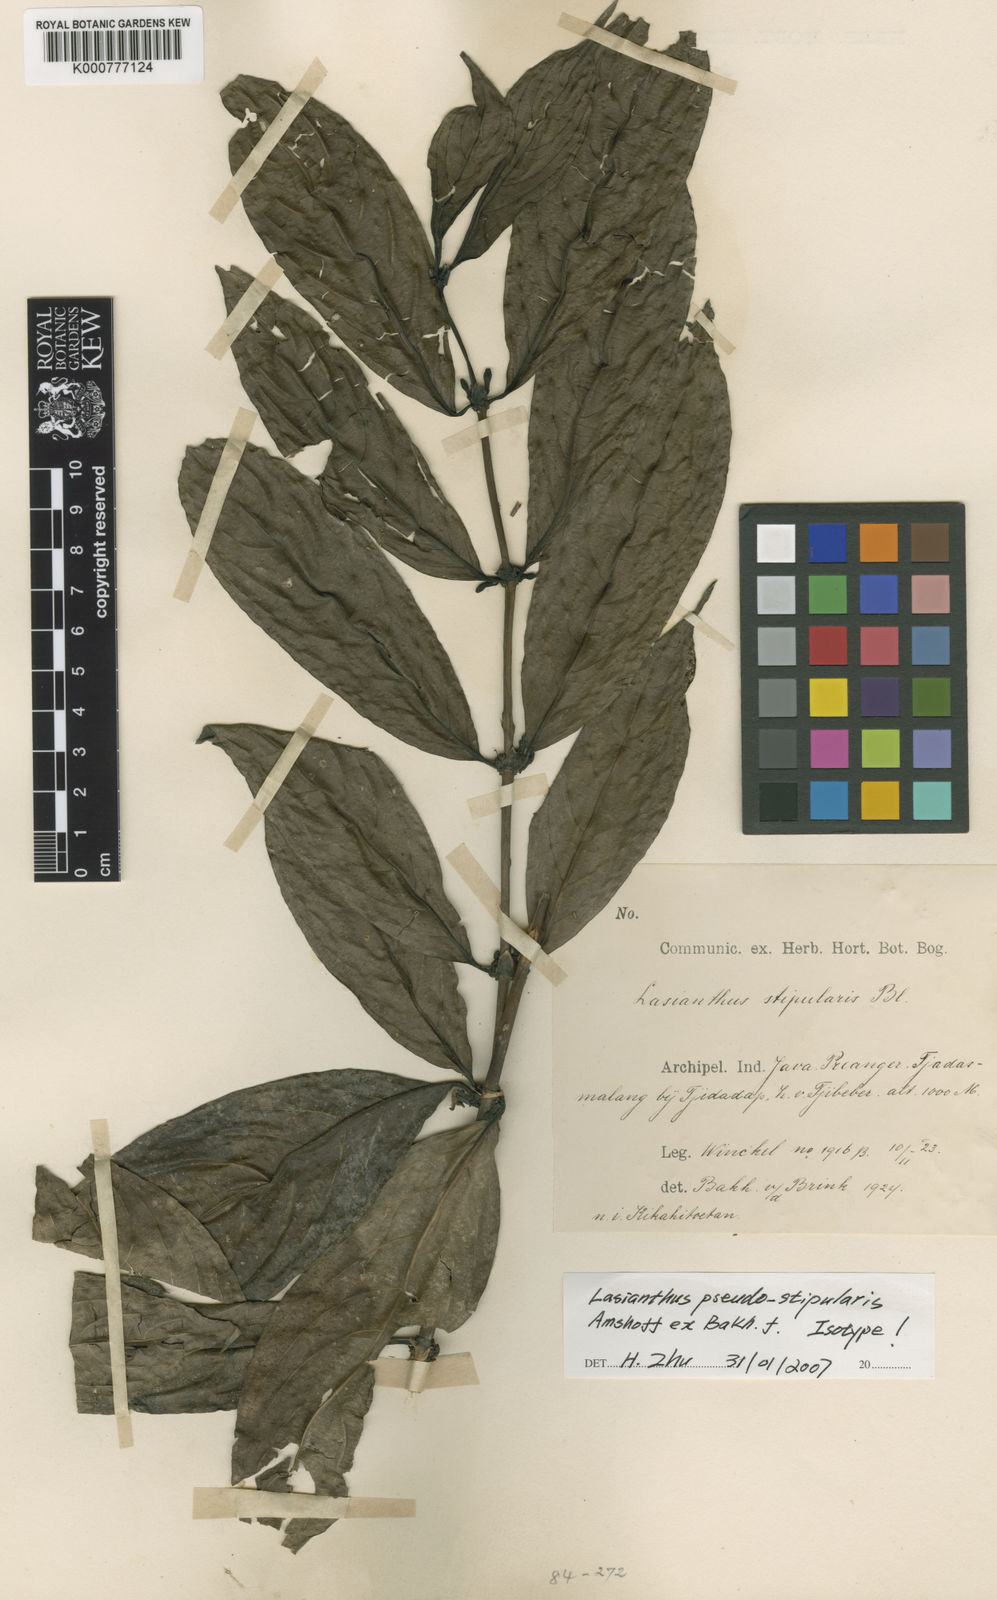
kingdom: Plantae
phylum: Tracheophyta
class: Magnoliopsida
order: Gentianales
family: Rubiaceae
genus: Lasianthus
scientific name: Lasianthus pseudostipularis
